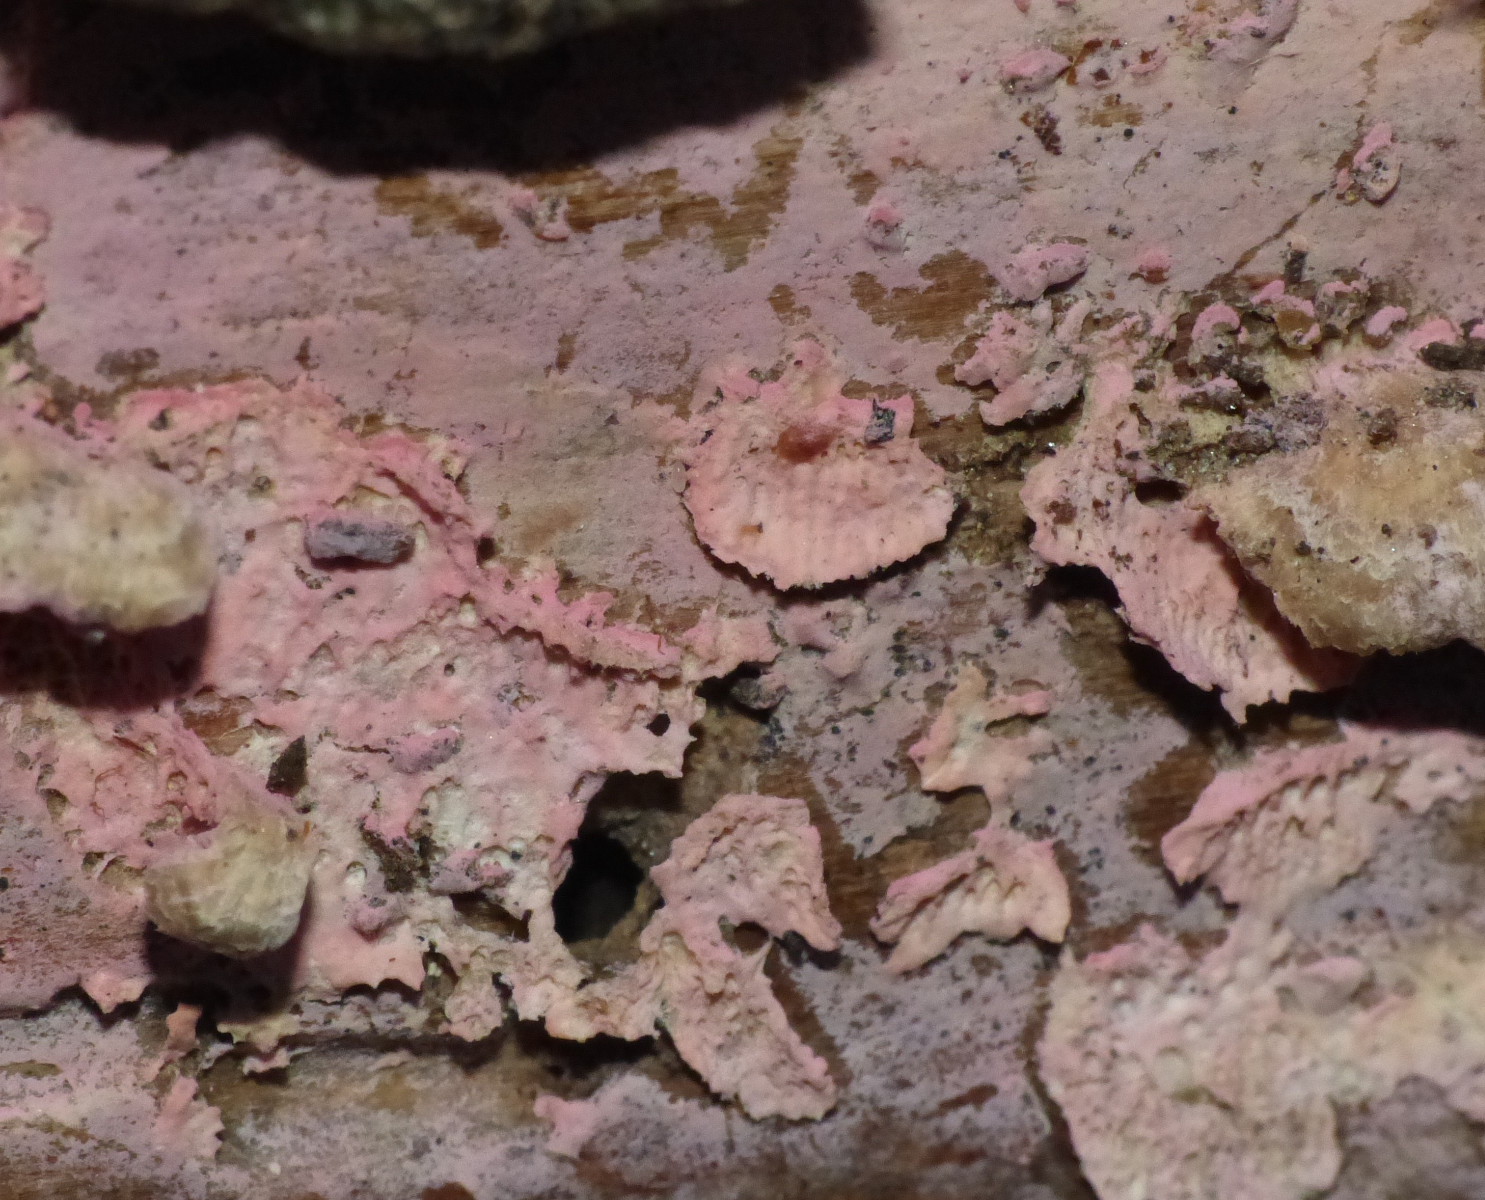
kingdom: Fungi
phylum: Basidiomycota
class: Agaricomycetes
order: Cantharellales
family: Tulasnellaceae
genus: Tulasnella
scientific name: Tulasnella violea
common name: violet ballonhinde
